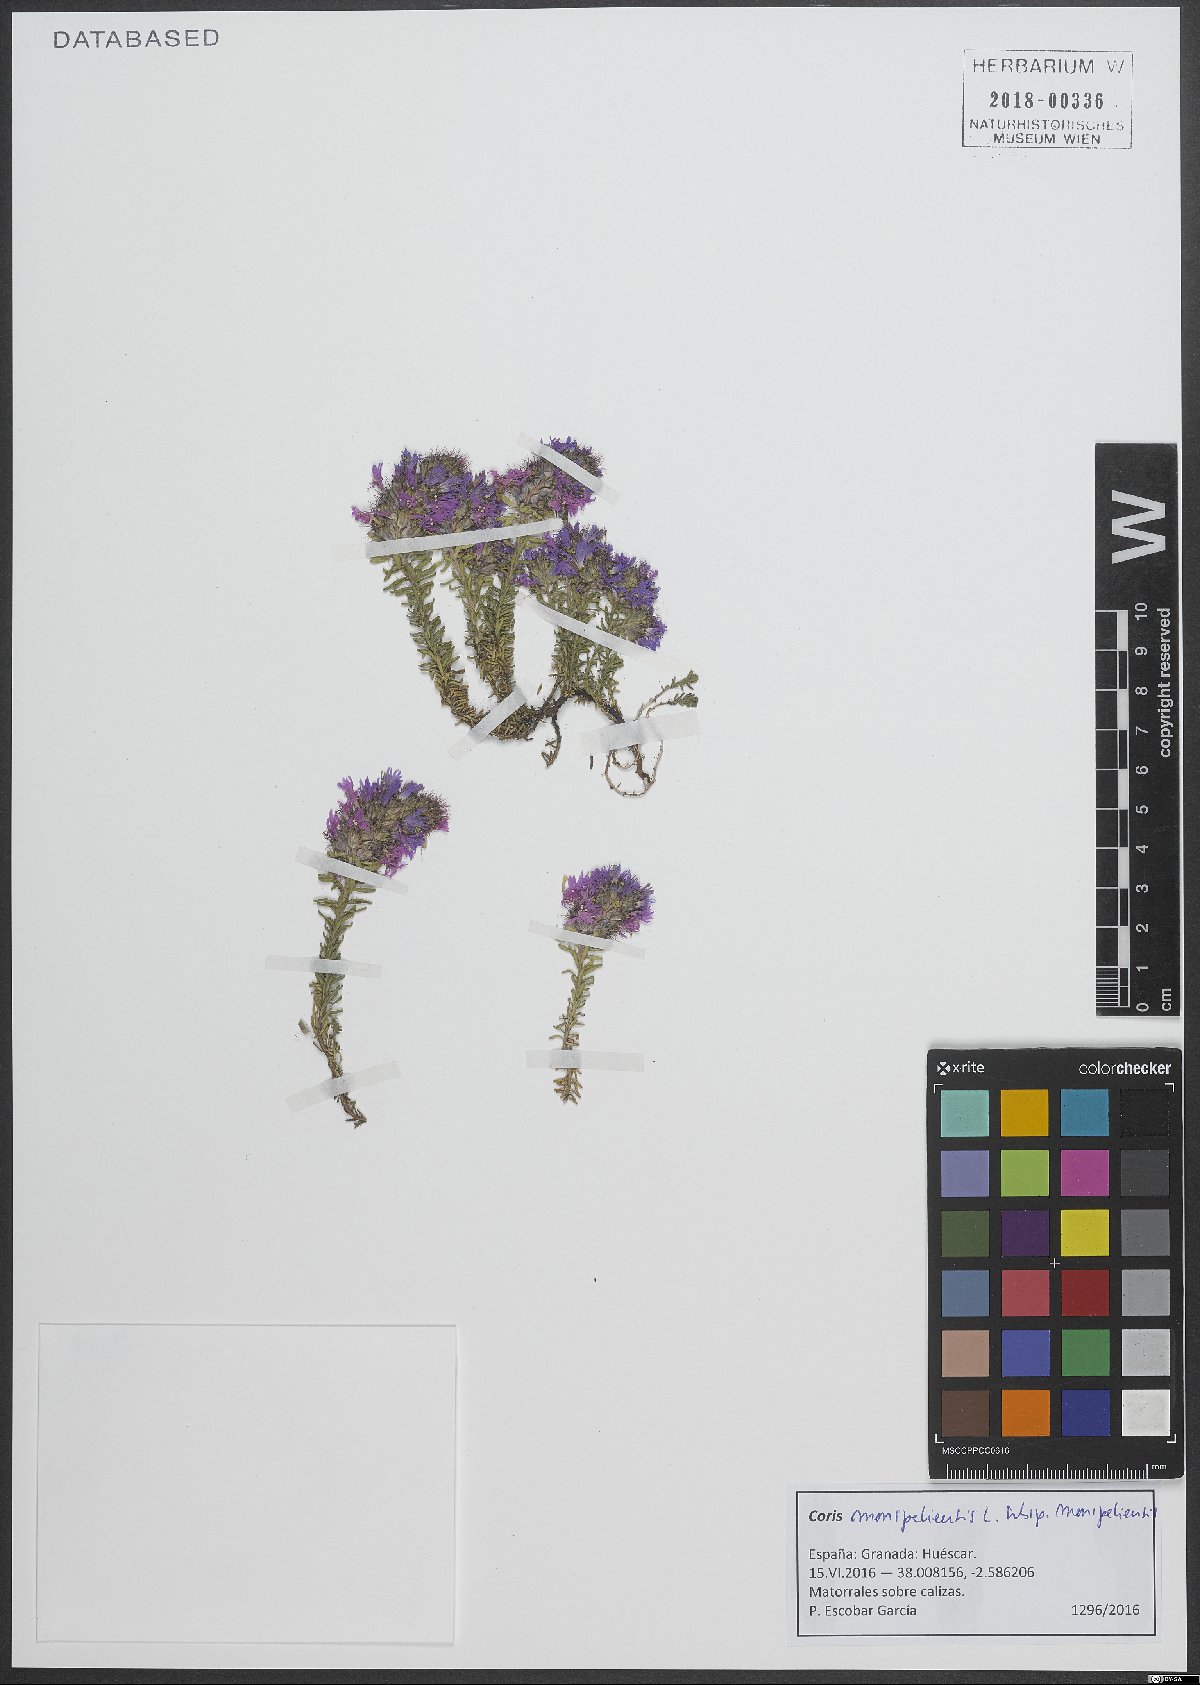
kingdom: Plantae
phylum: Tracheophyta
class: Magnoliopsida
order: Ericales
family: Primulaceae
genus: Coris
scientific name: Coris monspeliensis
